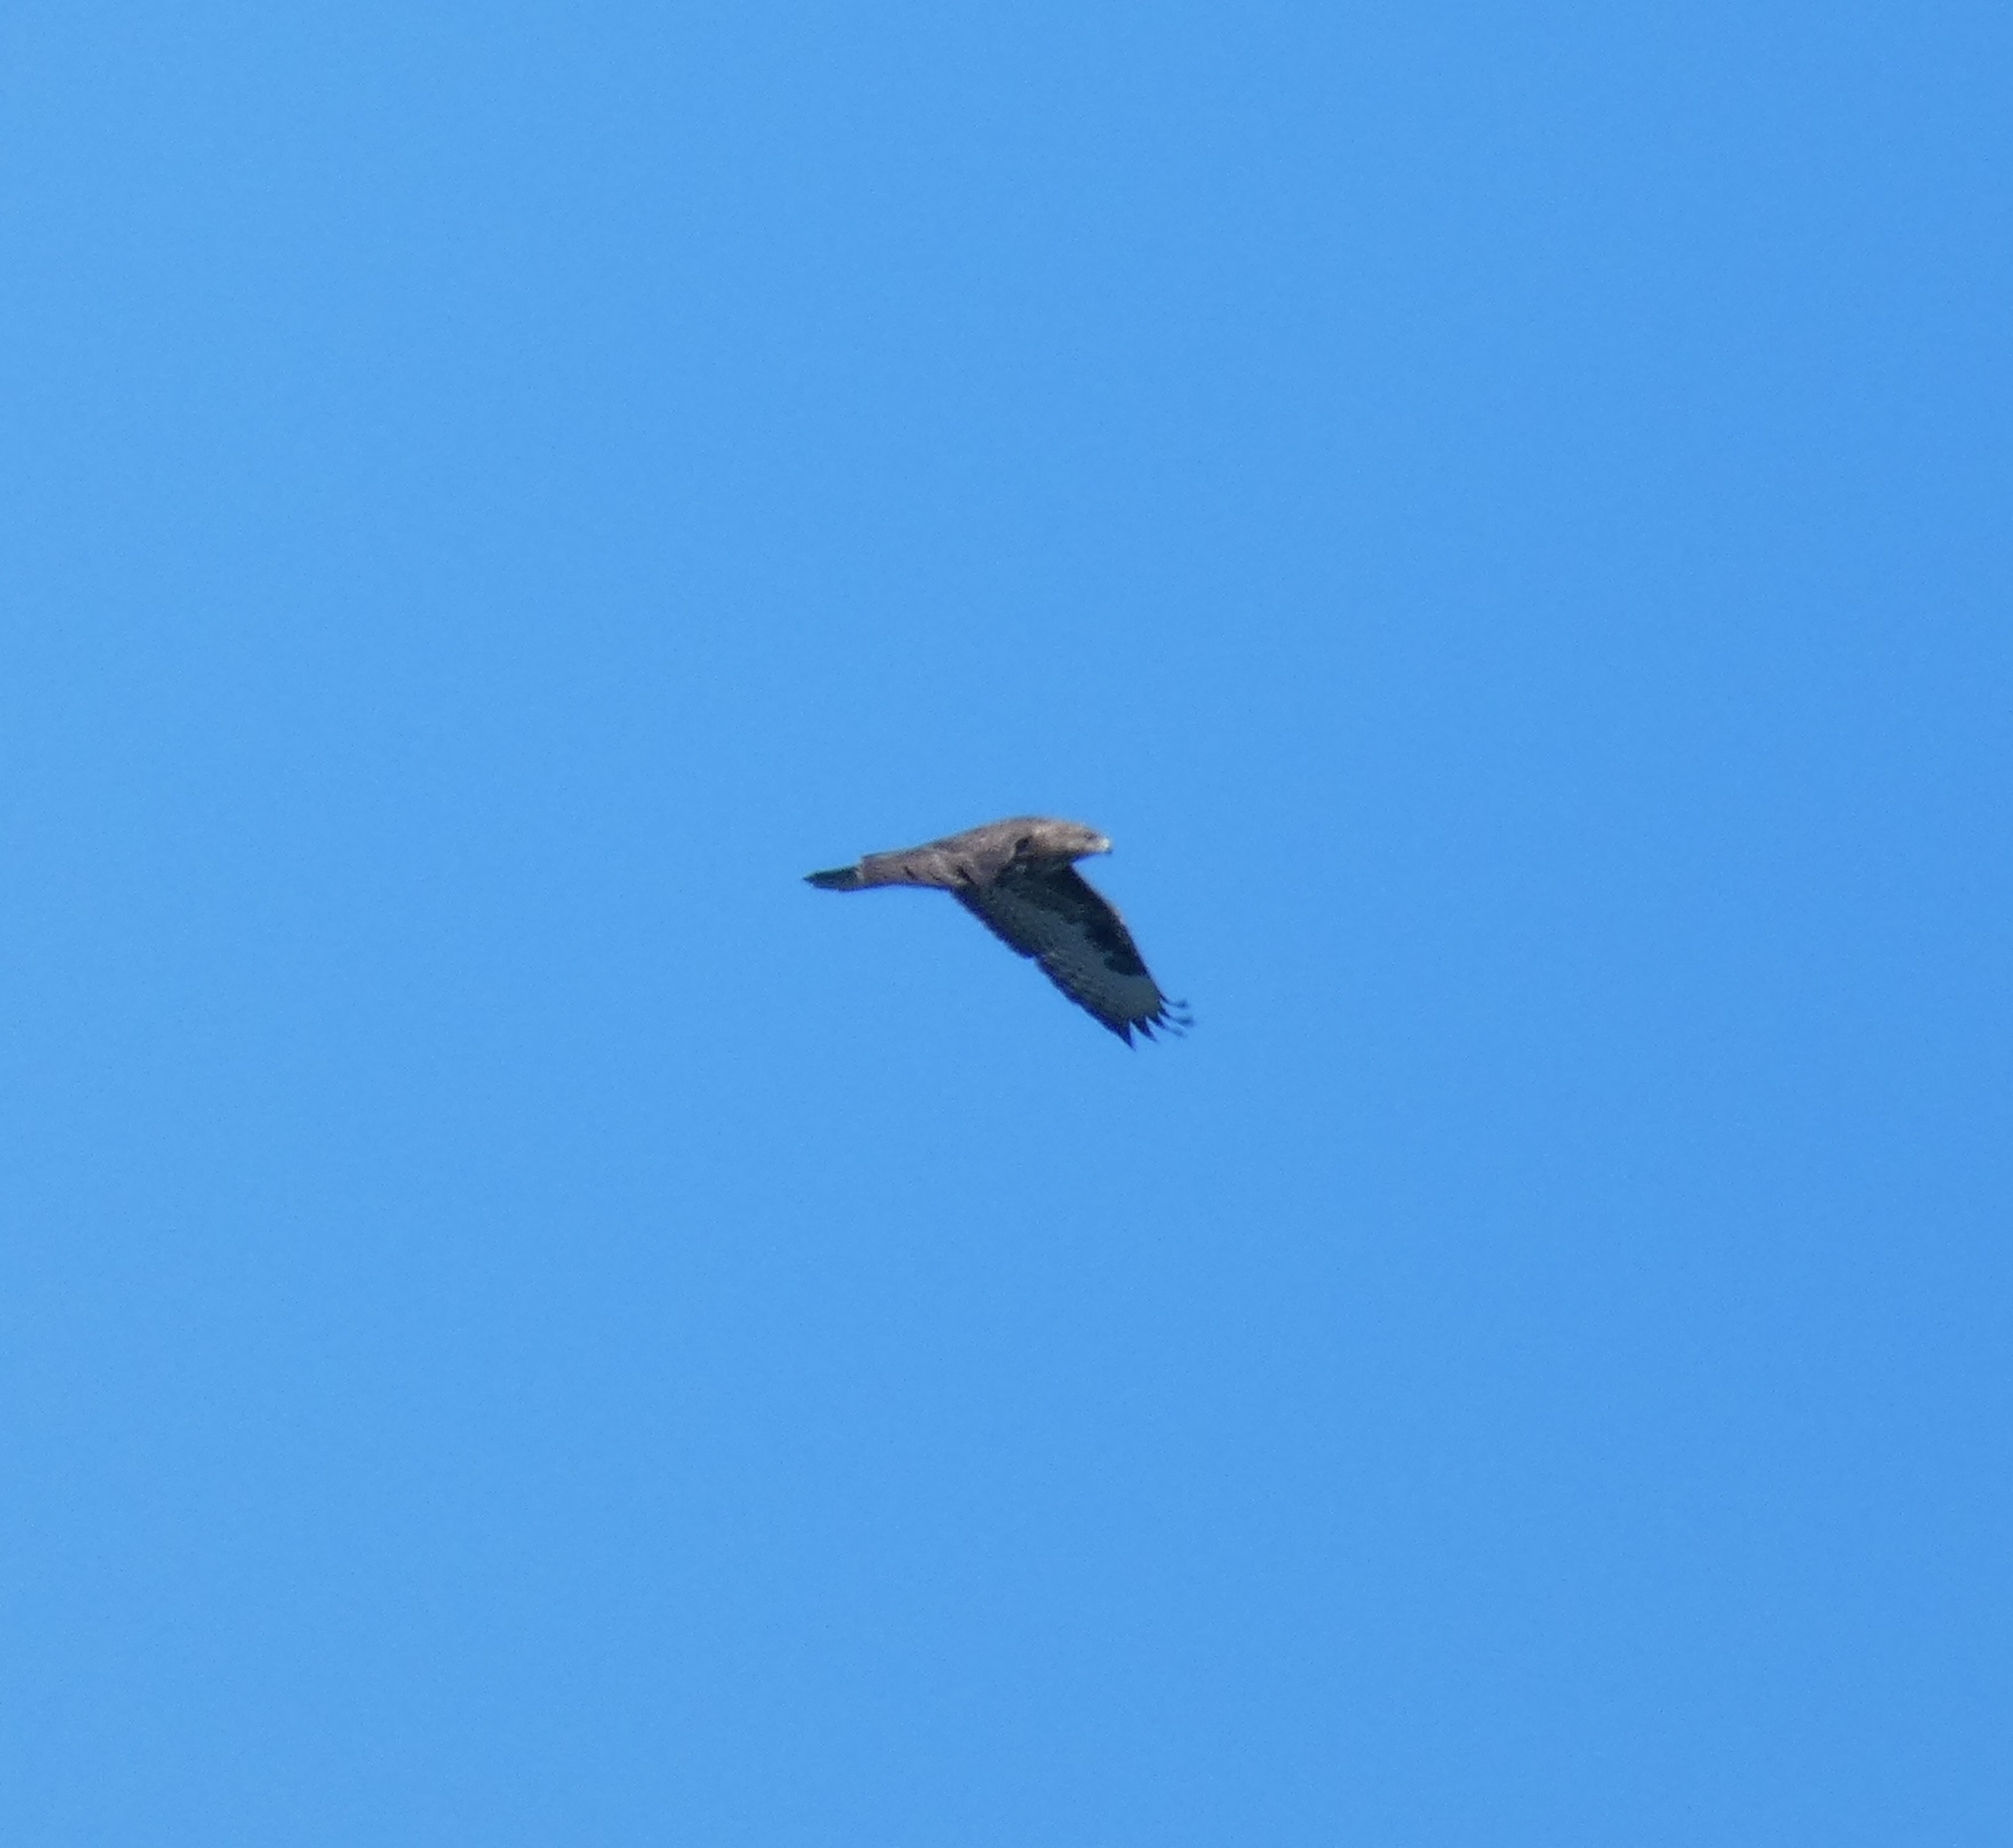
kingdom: Animalia
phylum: Chordata
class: Aves
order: Accipitriformes
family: Accipitridae
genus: Buteo
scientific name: Buteo buteo
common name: Musvåge
